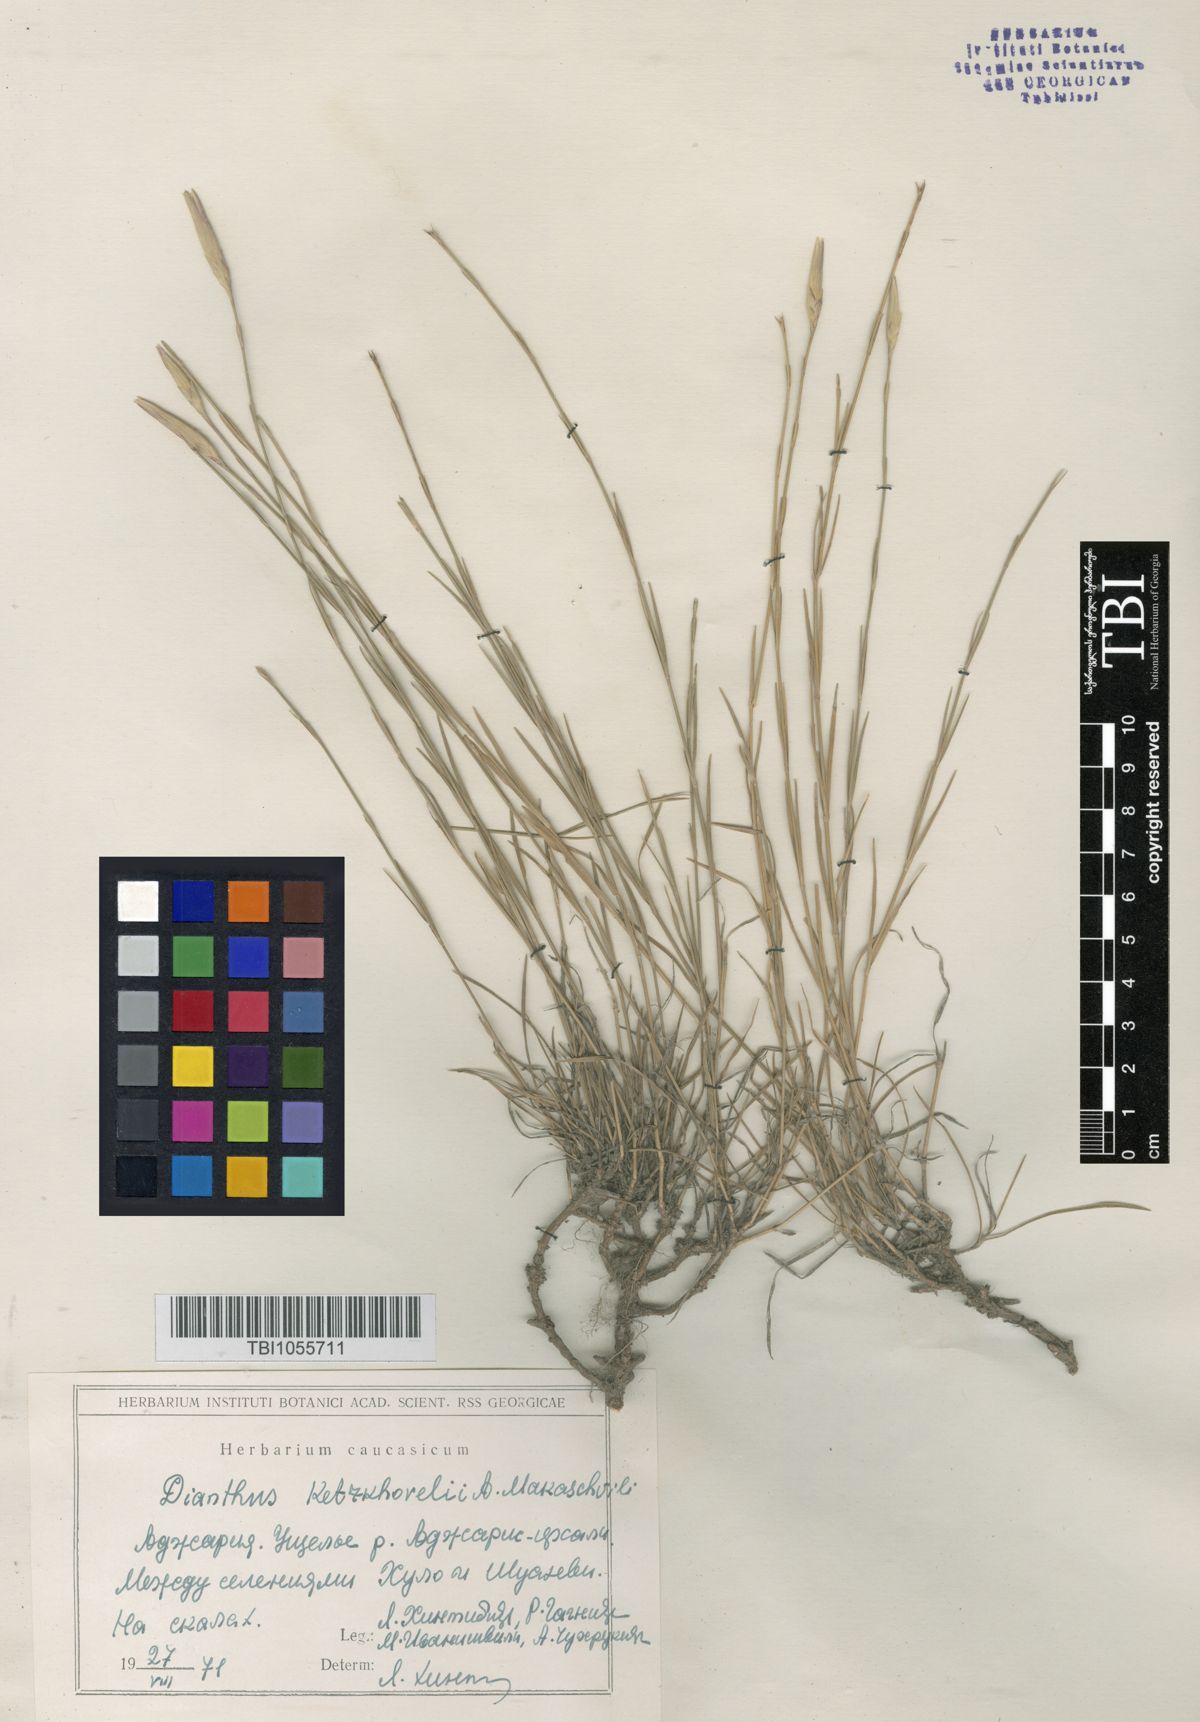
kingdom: Plantae
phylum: Tracheophyta
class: Magnoliopsida
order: Caryophyllales
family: Caryophyllaceae
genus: Dianthus
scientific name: Dianthus orientalis
